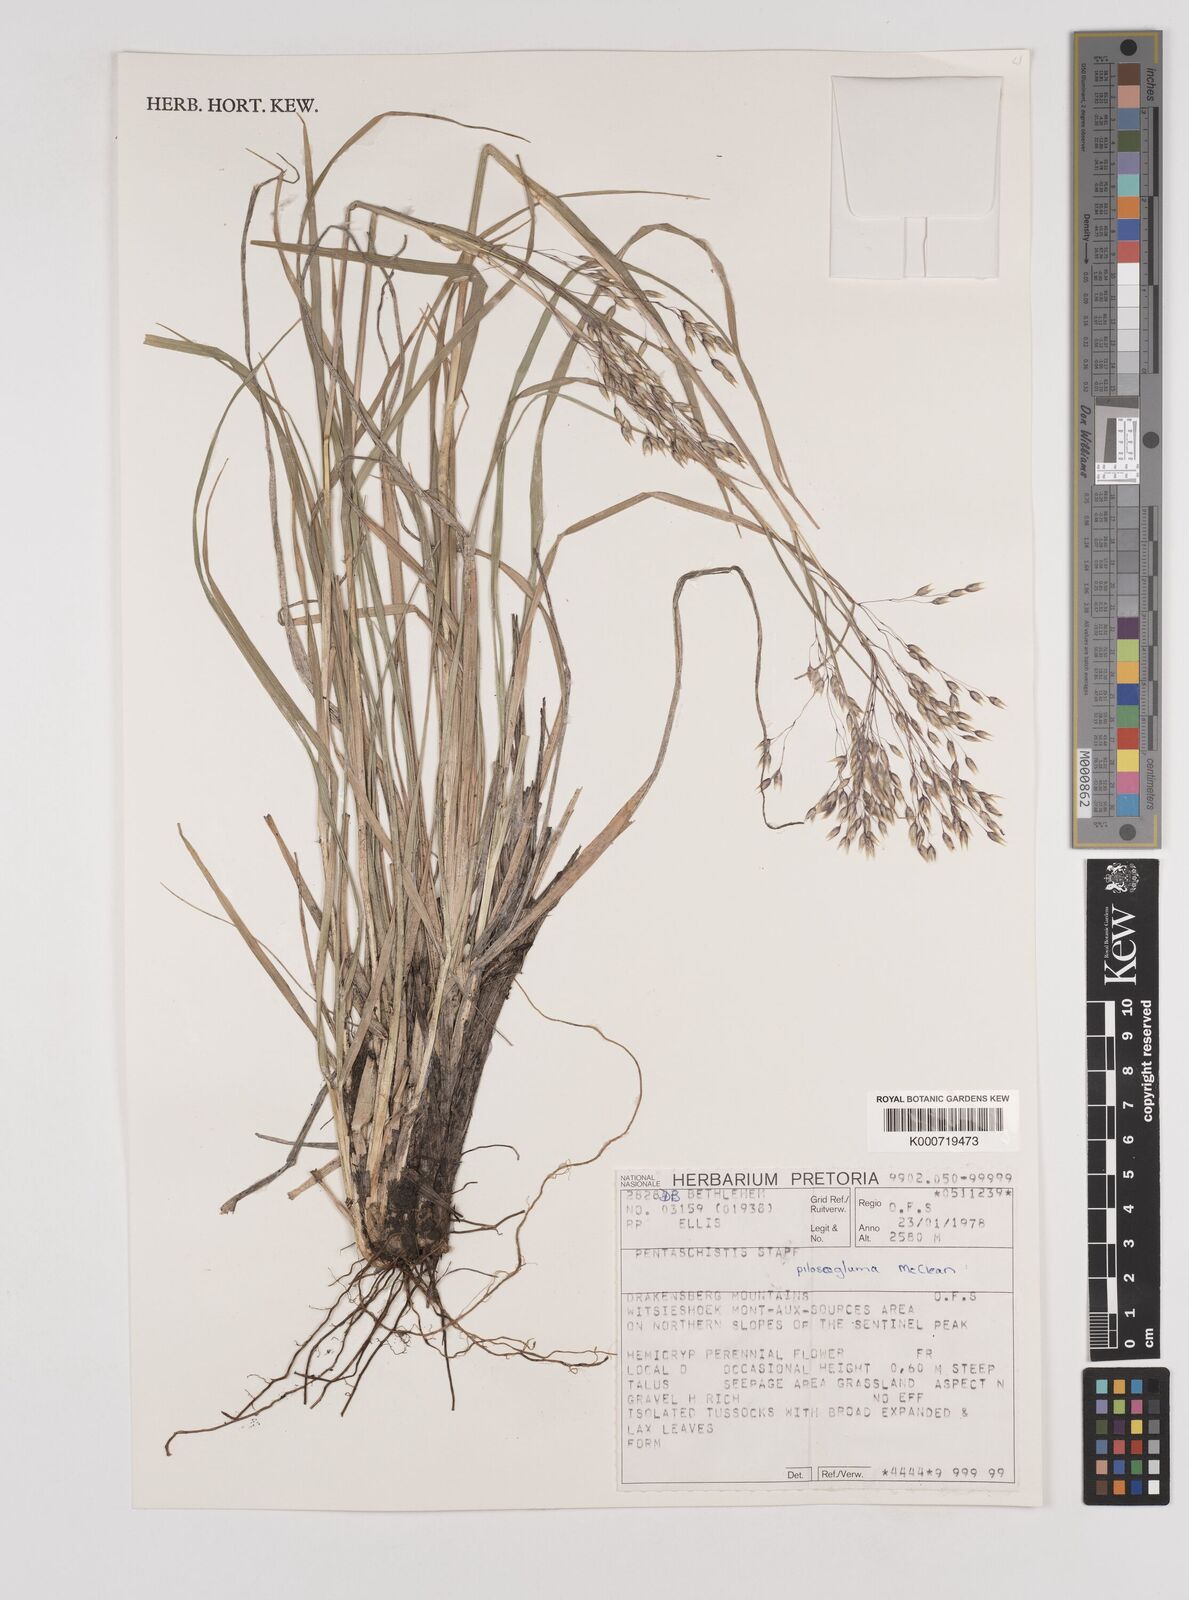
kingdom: Plantae
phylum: Tracheophyta
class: Liliopsida
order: Poales
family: Poaceae
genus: Pentameris
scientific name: Pentameris aurea
